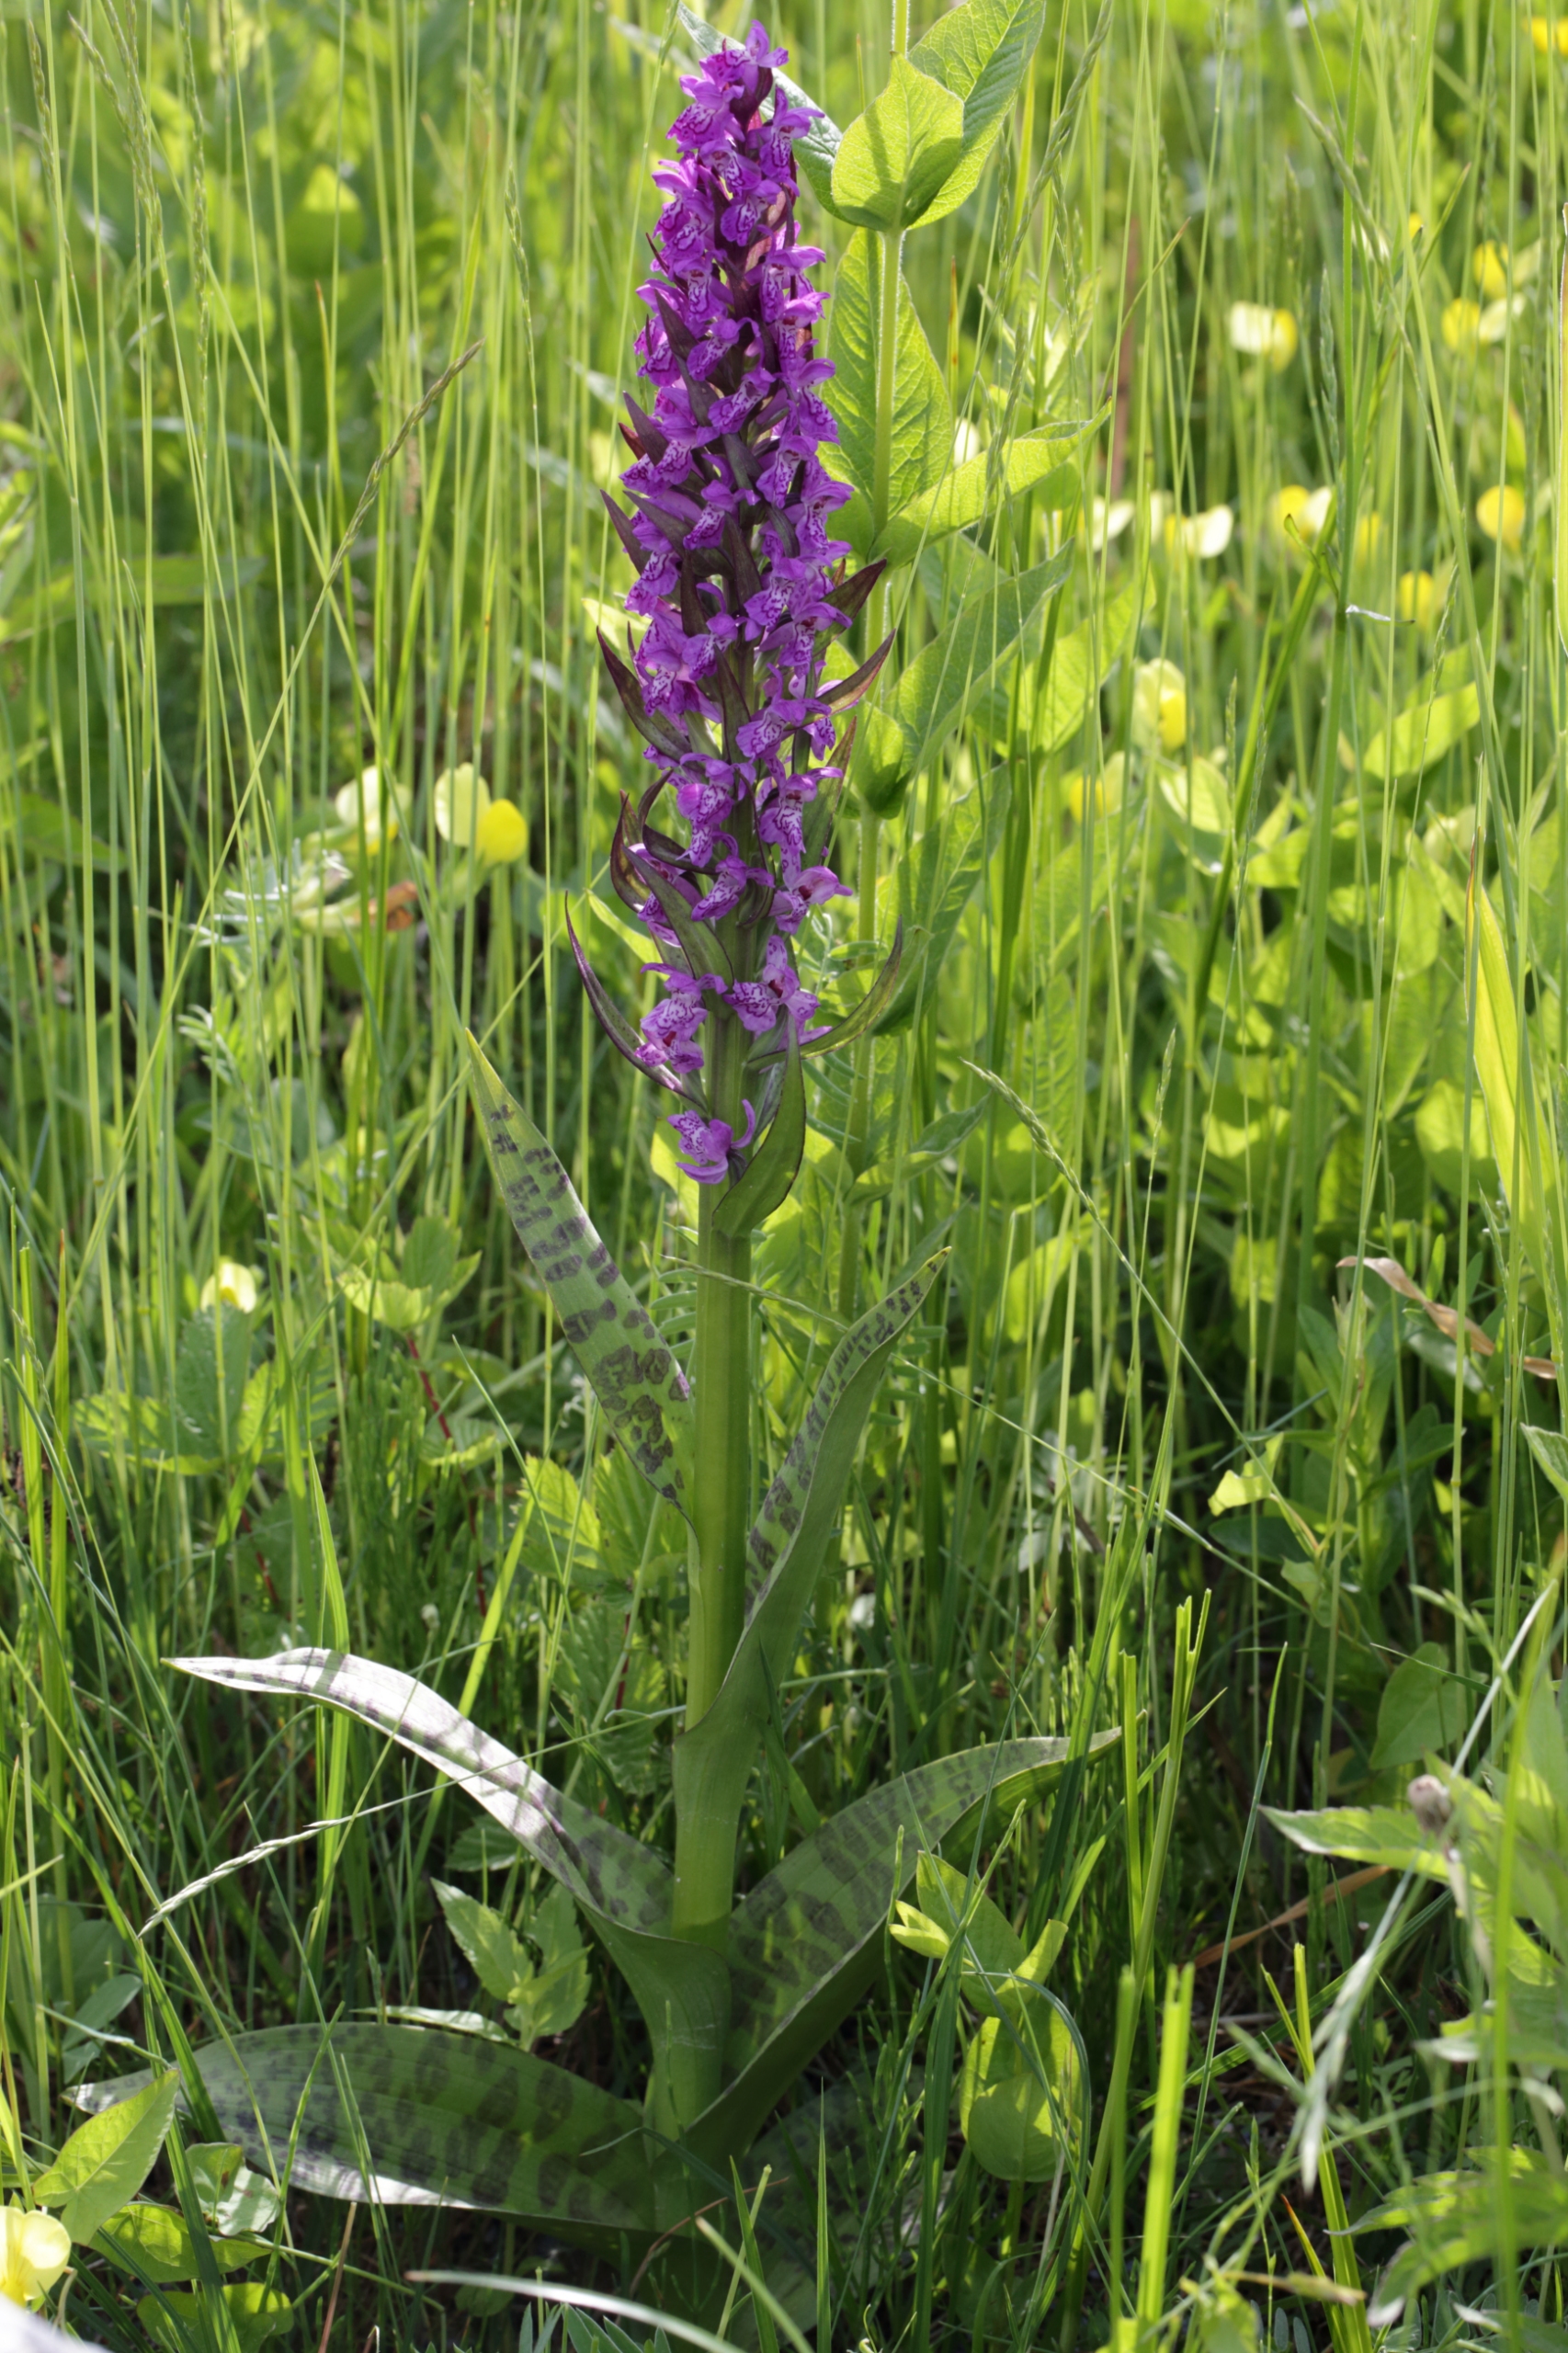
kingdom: Plantae
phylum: Tracheophyta
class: Liliopsida
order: Asparagales
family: Orchidaceae
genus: Dactylorhiza
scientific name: Dactylorhiza majalis
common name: Maj-gøgeurt
